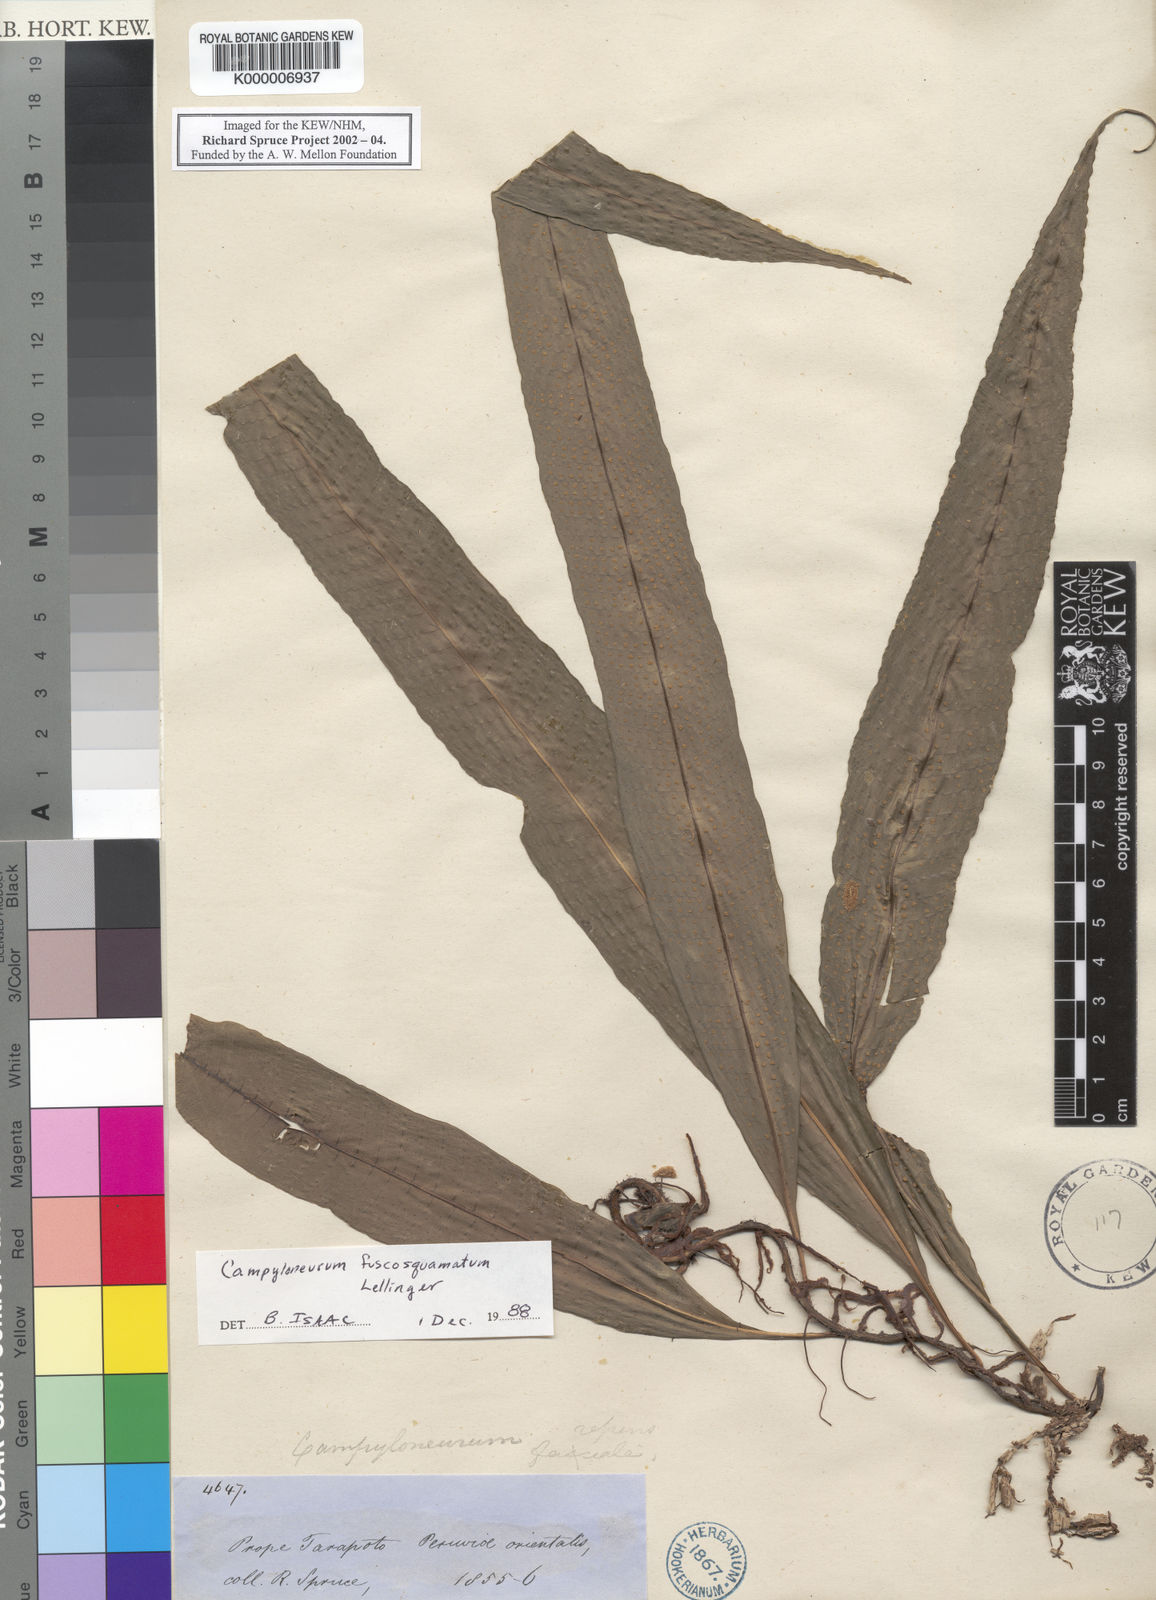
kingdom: Plantae
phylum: Tracheophyta
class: Polypodiopsida
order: Polypodiales
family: Polypodiaceae
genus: Campyloneurum
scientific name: Campyloneurum fuscosquamatum
